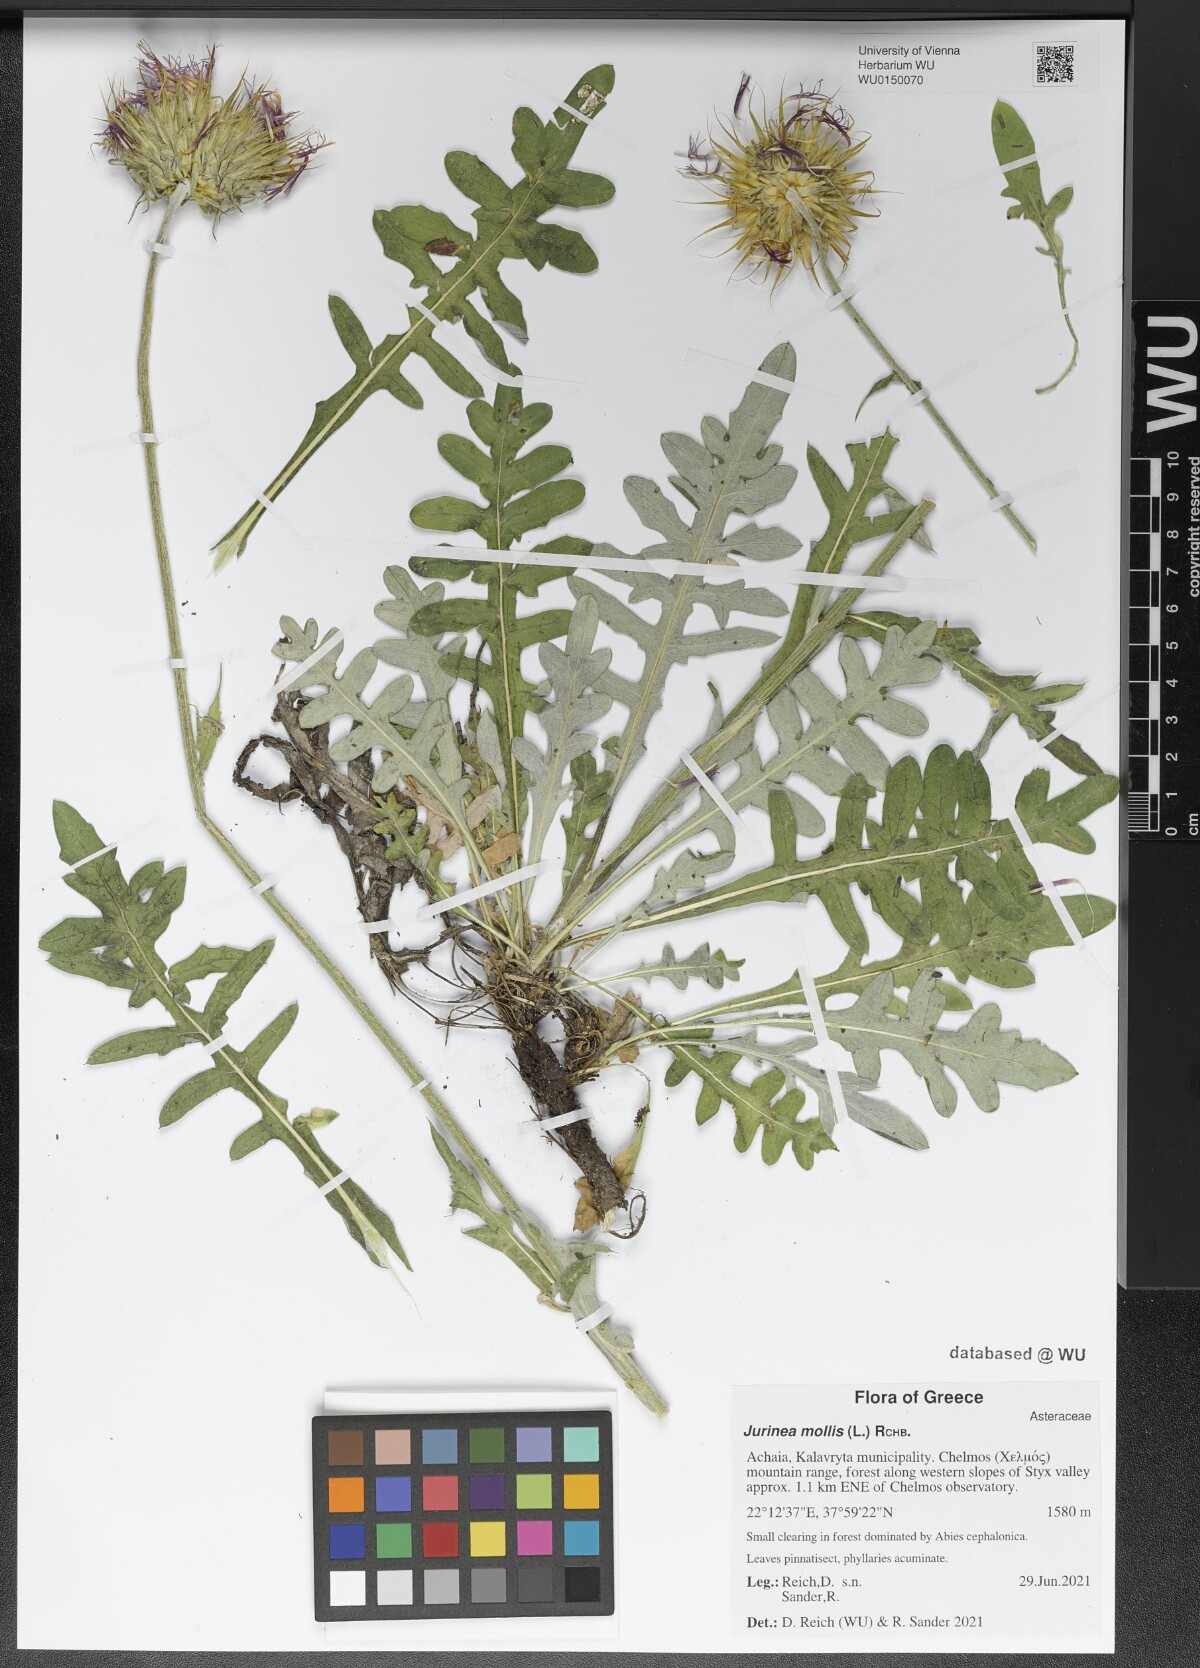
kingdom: Plantae
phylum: Tracheophyta
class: Magnoliopsida
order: Asterales
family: Asteraceae
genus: Jurinea
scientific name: Jurinea mollis
